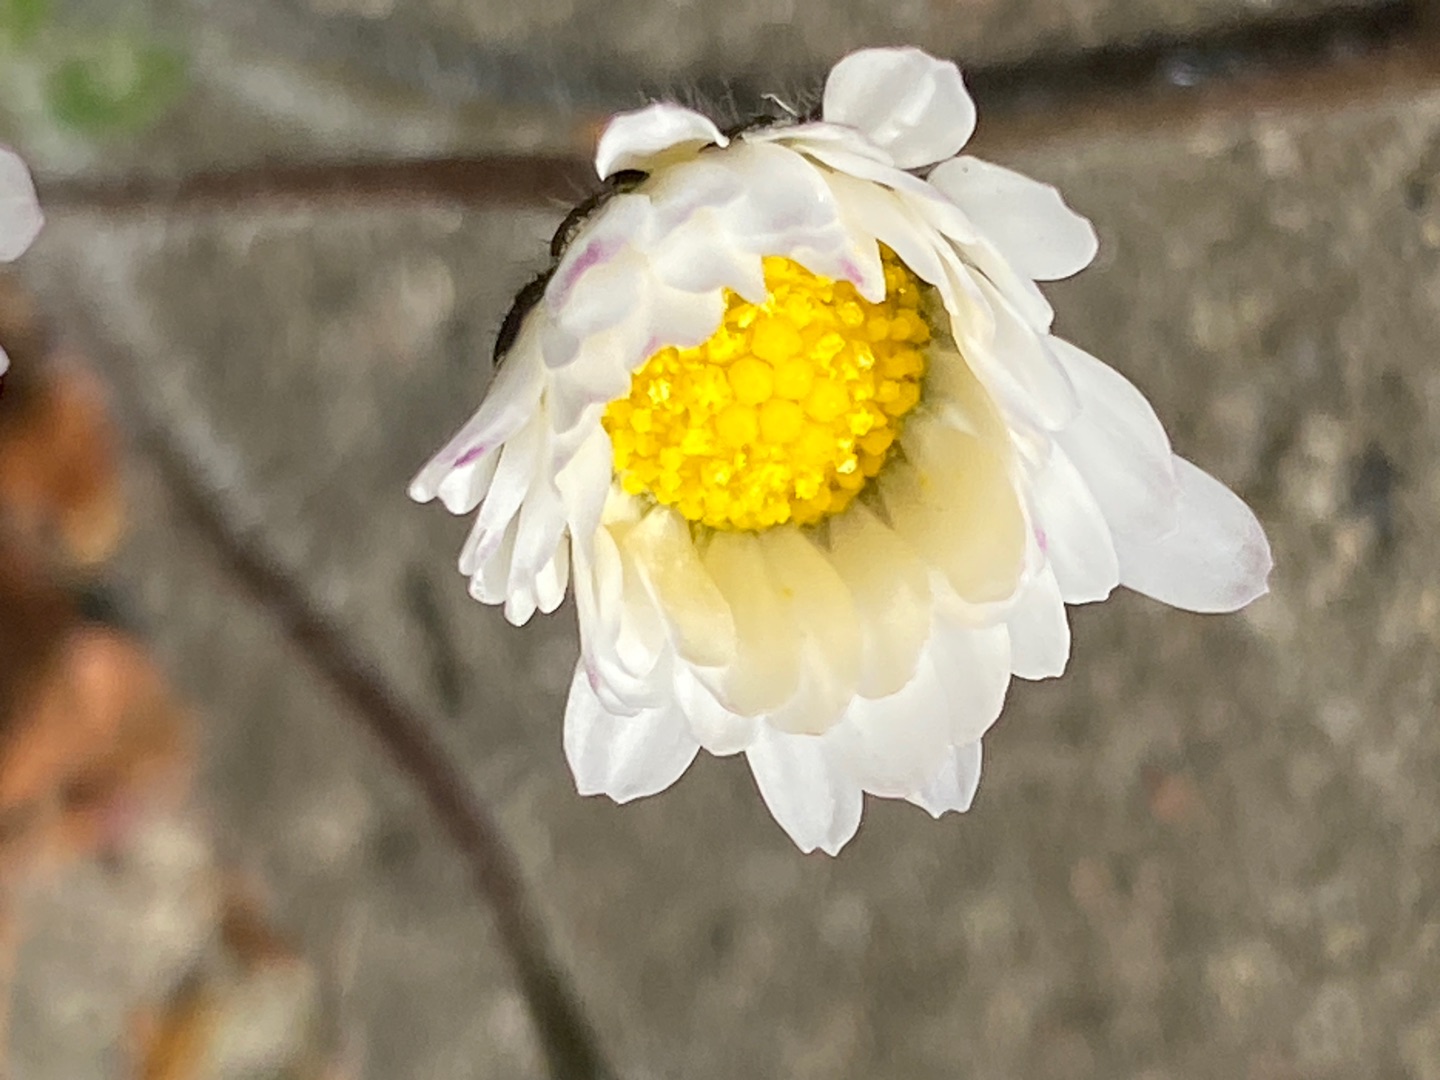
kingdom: Plantae
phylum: Tracheophyta
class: Magnoliopsida
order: Asterales
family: Asteraceae
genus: Bellis
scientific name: Bellis perennis
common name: Tusindfryd
